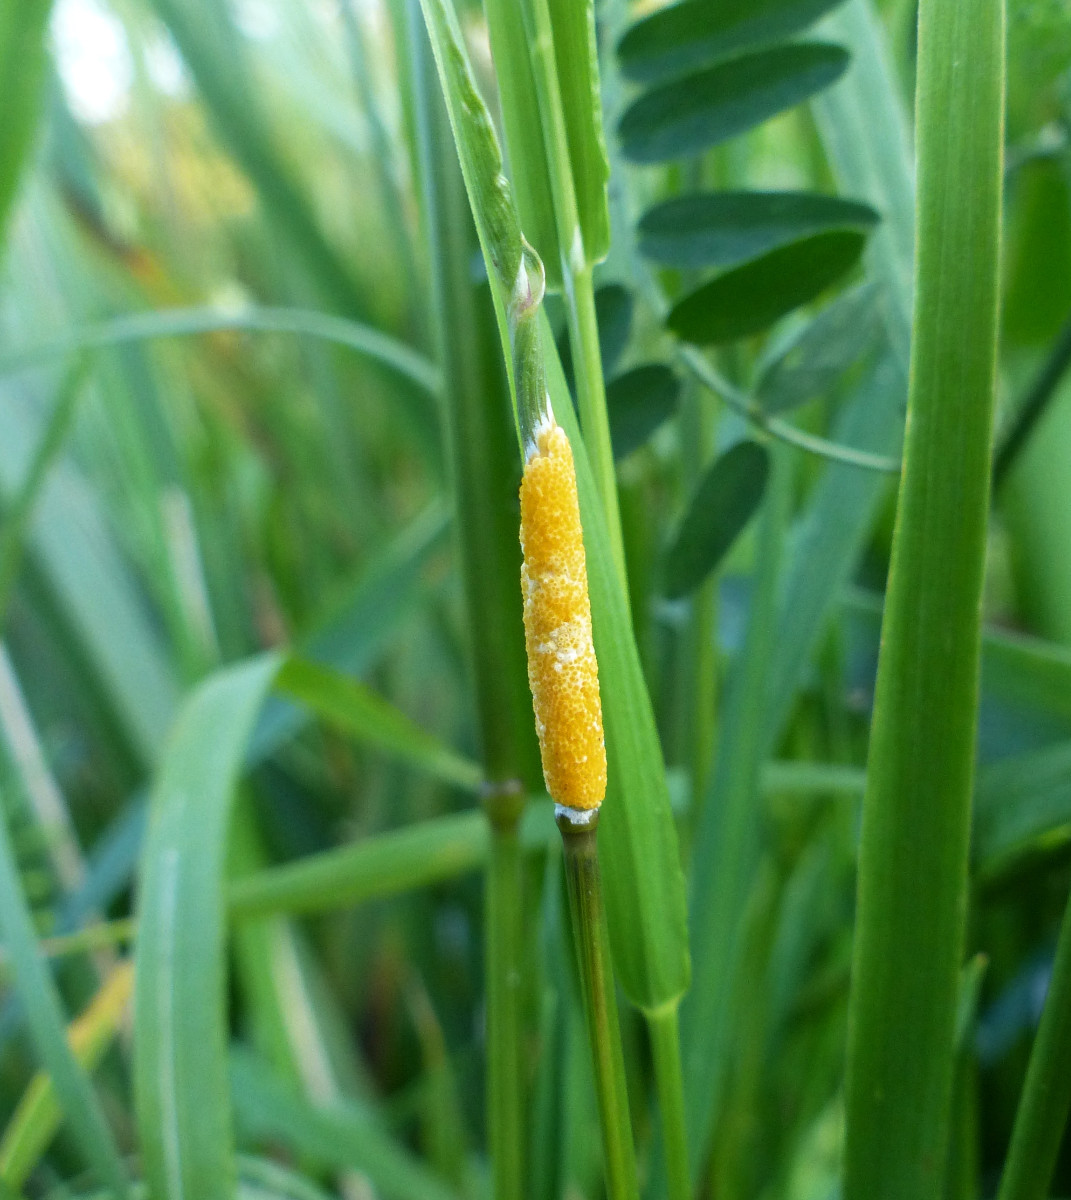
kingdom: Fungi
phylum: Ascomycota
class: Sordariomycetes
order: Hypocreales
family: Clavicipitaceae
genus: Epichloe
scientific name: Epichloe typhina
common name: almindelig kernerør
